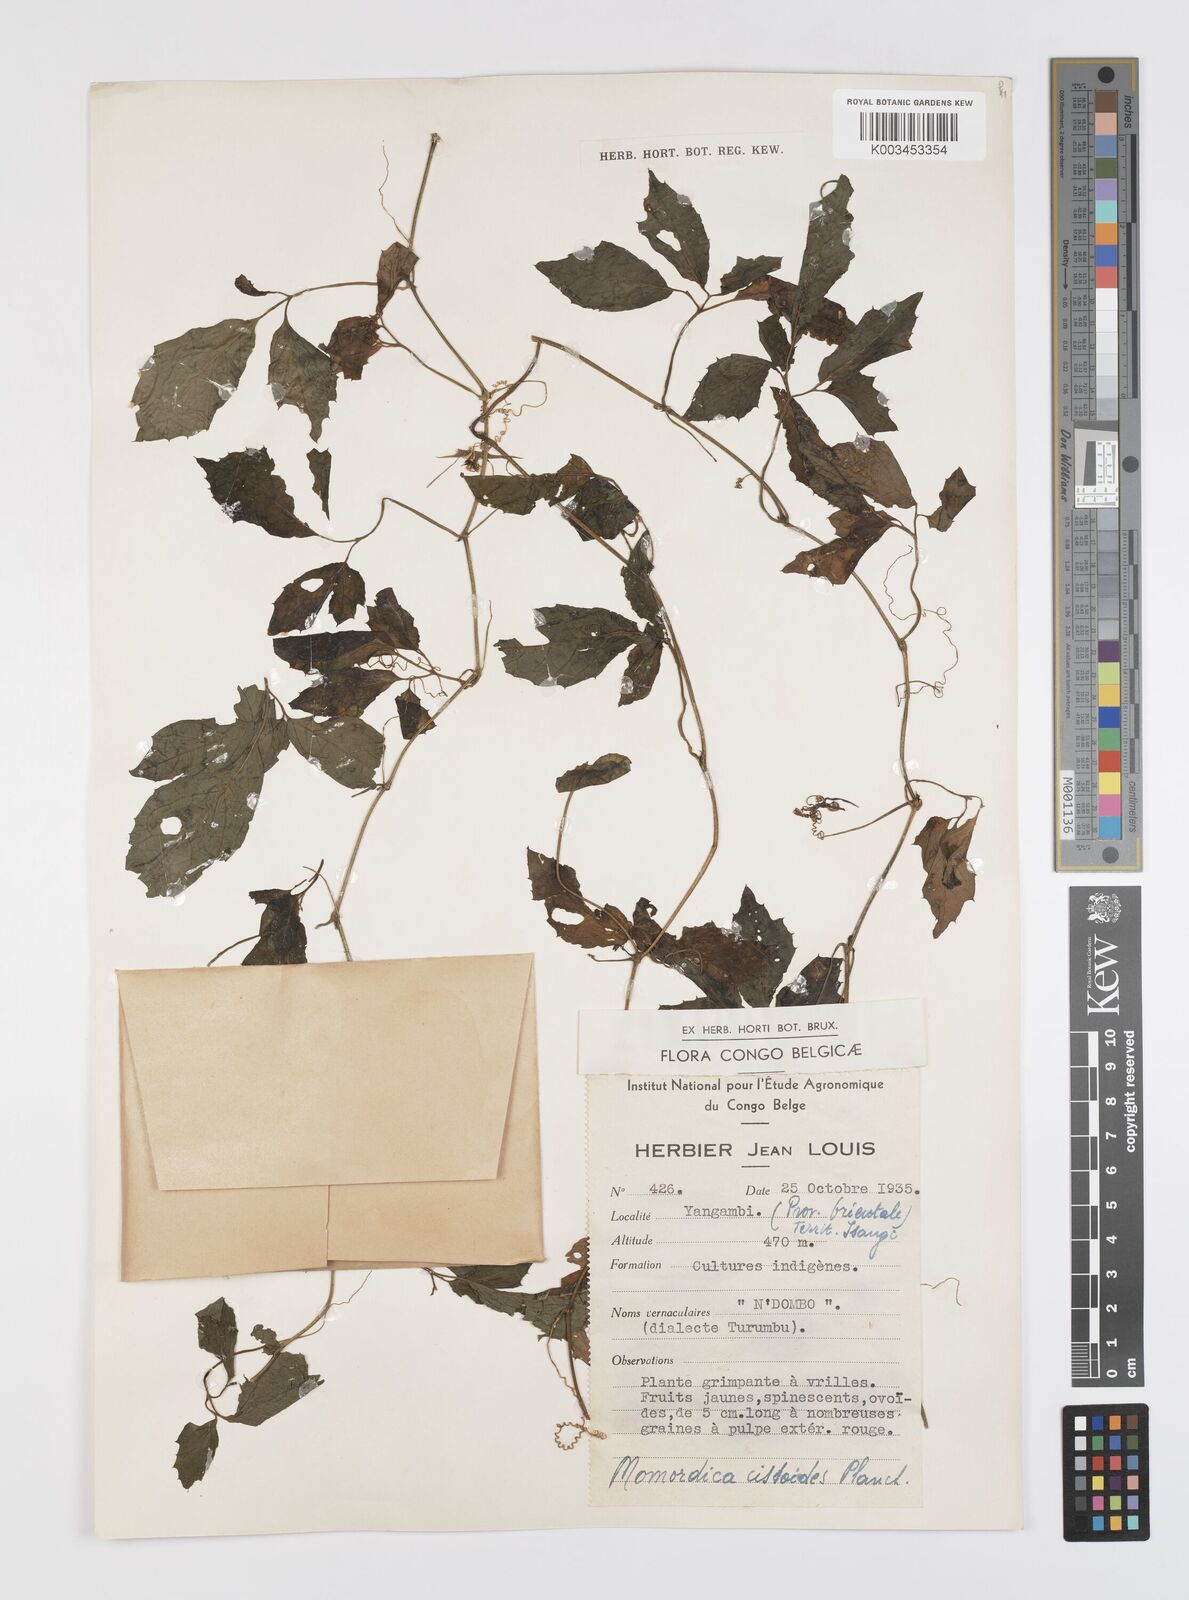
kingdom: Plantae
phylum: Tracheophyta
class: Magnoliopsida
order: Cucurbitales
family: Cucurbitaceae
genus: Momordica
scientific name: Momordica cissoides
